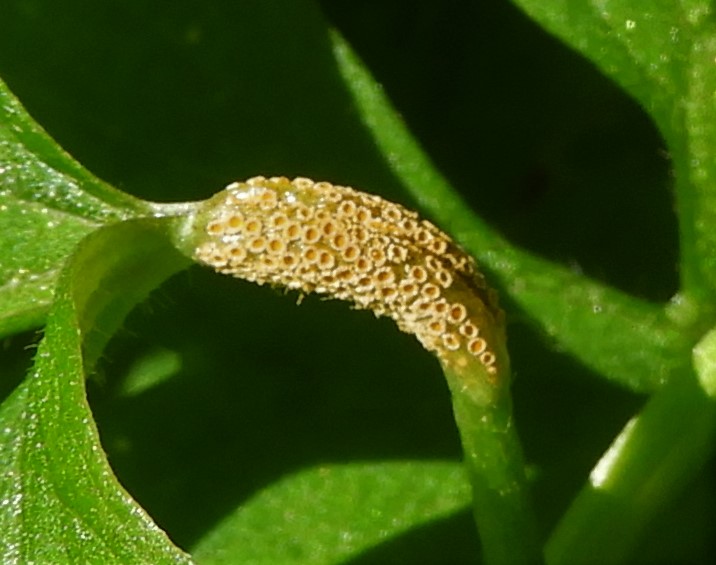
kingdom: Fungi
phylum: Basidiomycota
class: Pucciniomycetes
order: Pucciniales
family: Pucciniaceae
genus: Puccinia
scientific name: Puccinia recondita
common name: Brown rust of wheat
